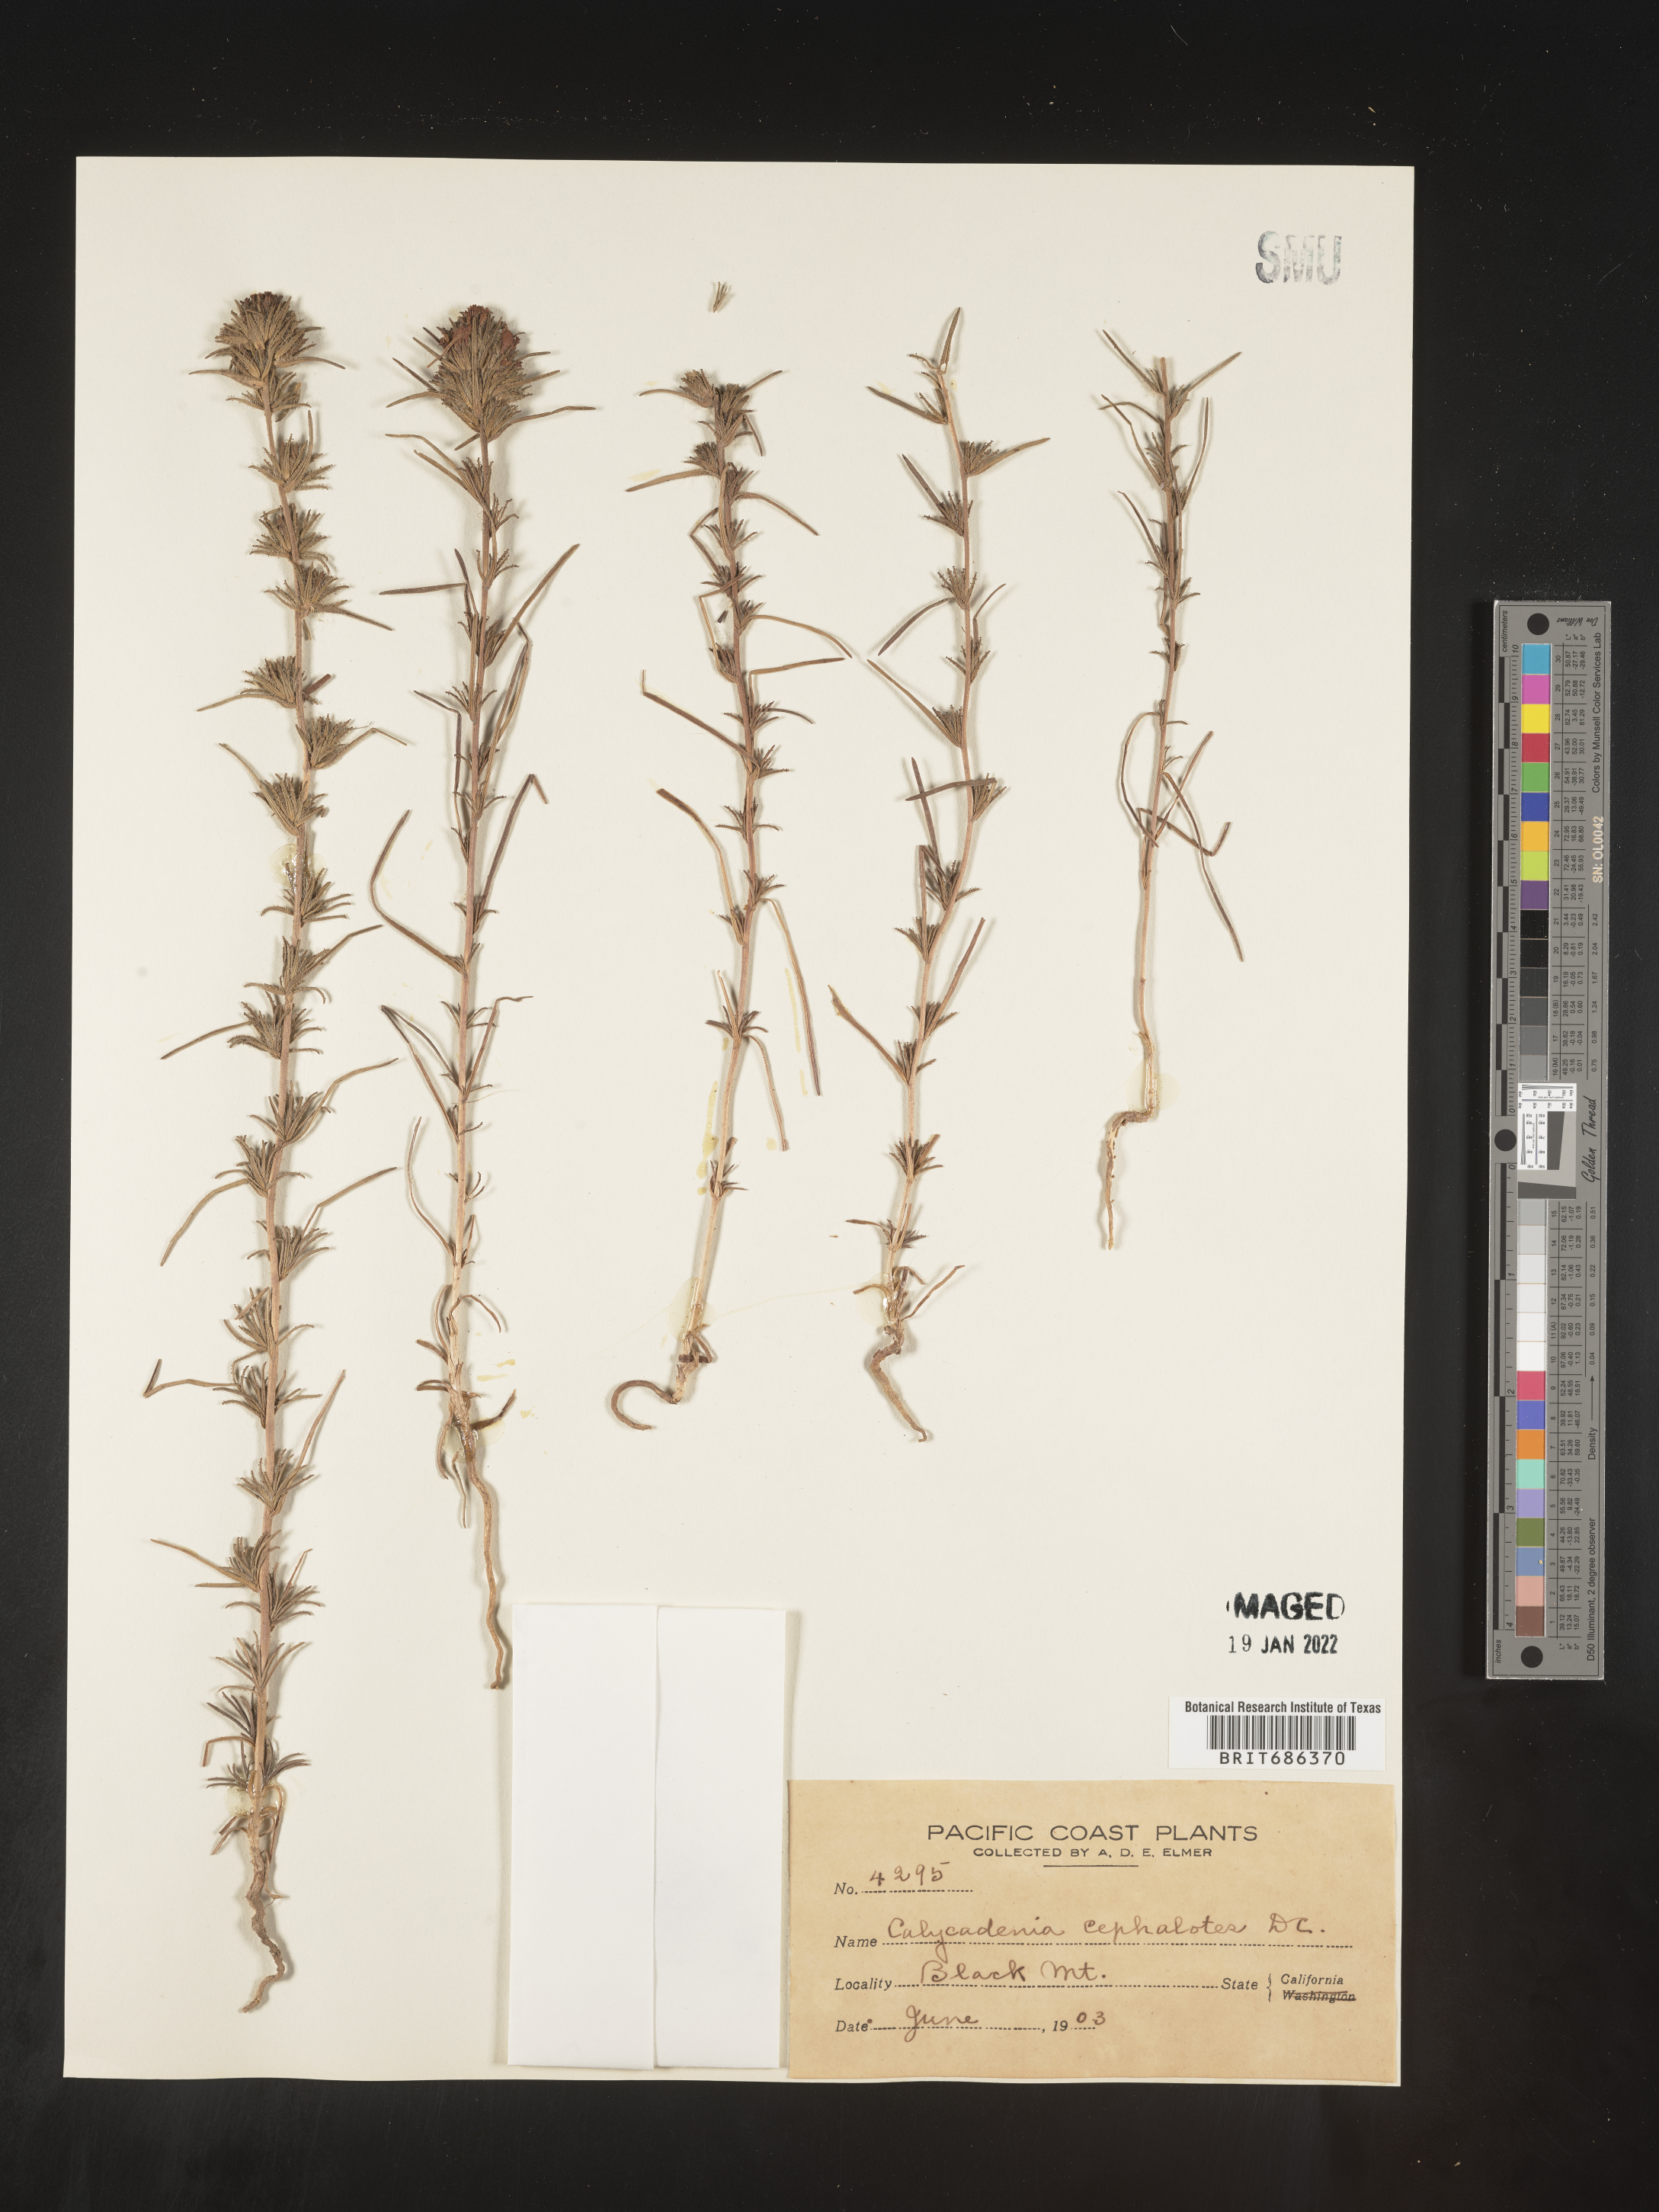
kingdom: Plantae
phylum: Tracheophyta
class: Magnoliopsida
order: Asterales
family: Asteraceae
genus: Calycadenia
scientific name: Calycadenia
